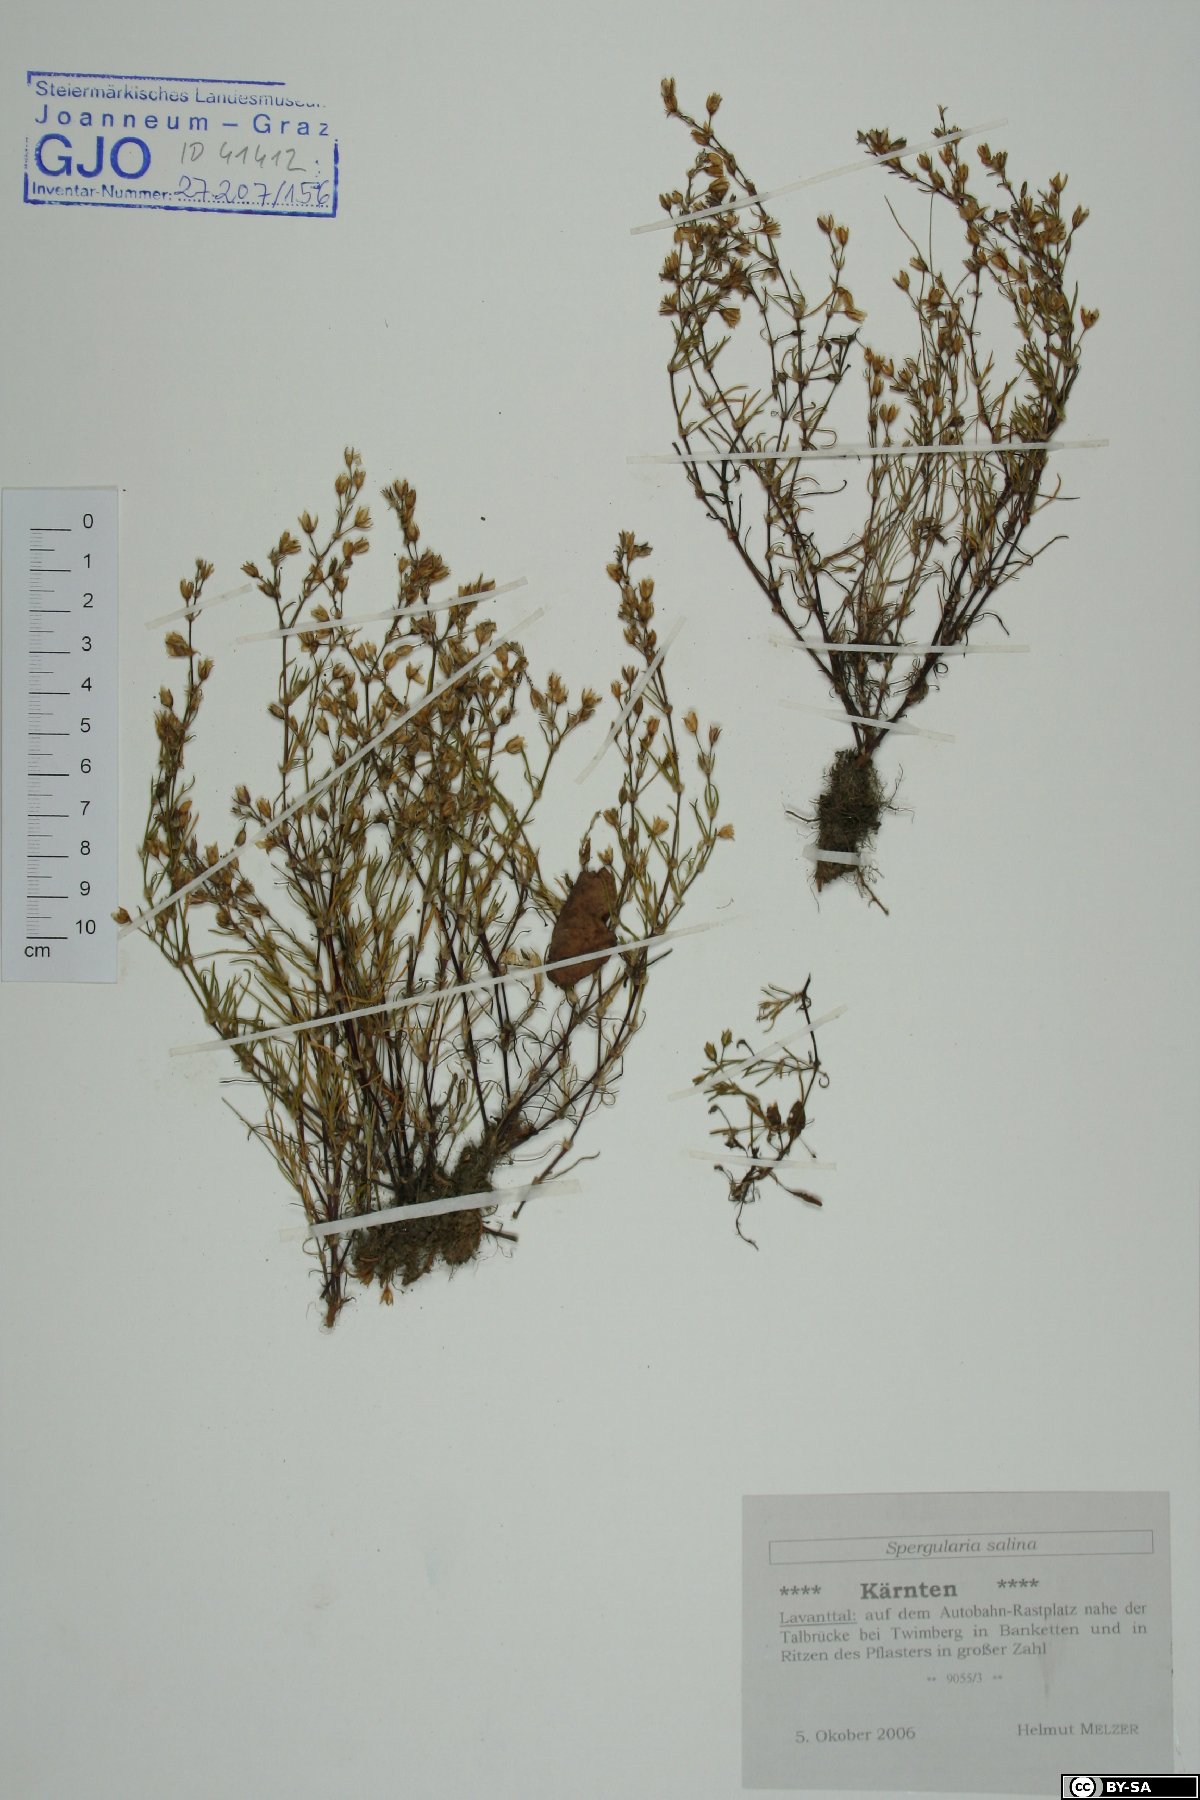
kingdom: Plantae
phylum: Tracheophyta
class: Magnoliopsida
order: Caryophyllales
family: Caryophyllaceae
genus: Spergularia
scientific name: Spergularia marina
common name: Lesser sea-spurrey
